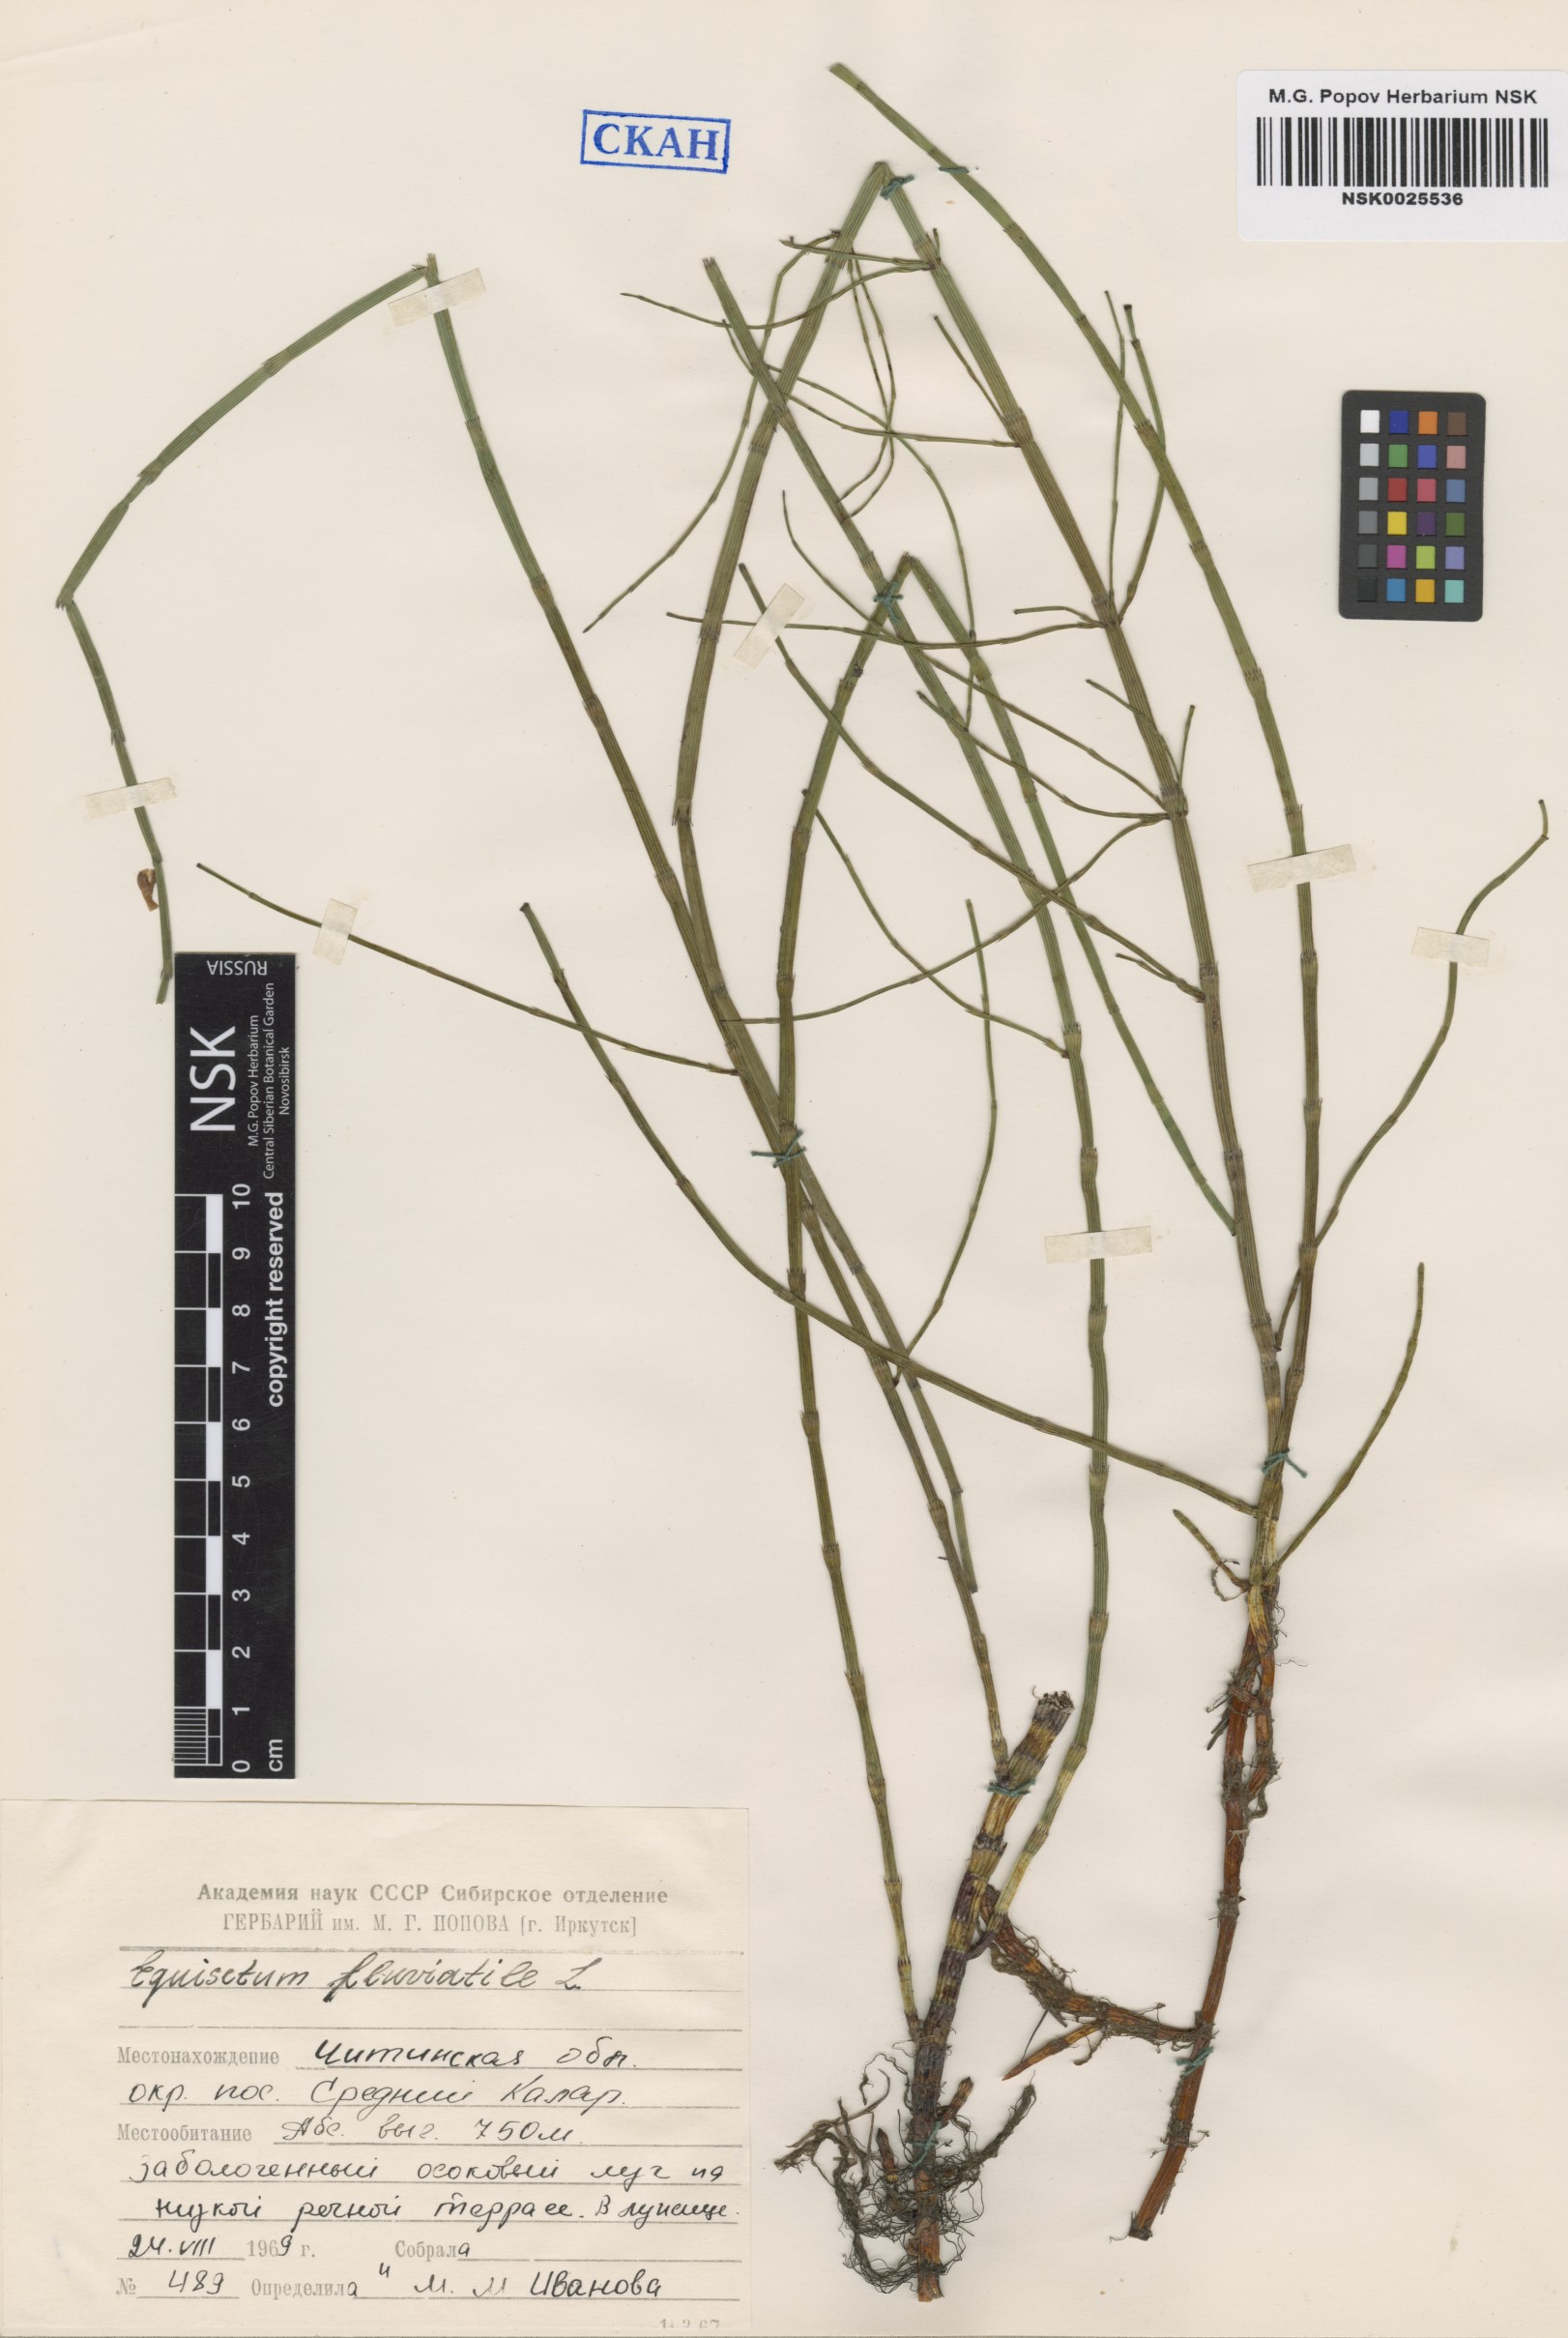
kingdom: Plantae
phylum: Tracheophyta
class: Polypodiopsida
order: Equisetales
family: Equisetaceae
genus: Equisetum
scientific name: Equisetum fluviatile
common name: Water horsetail
